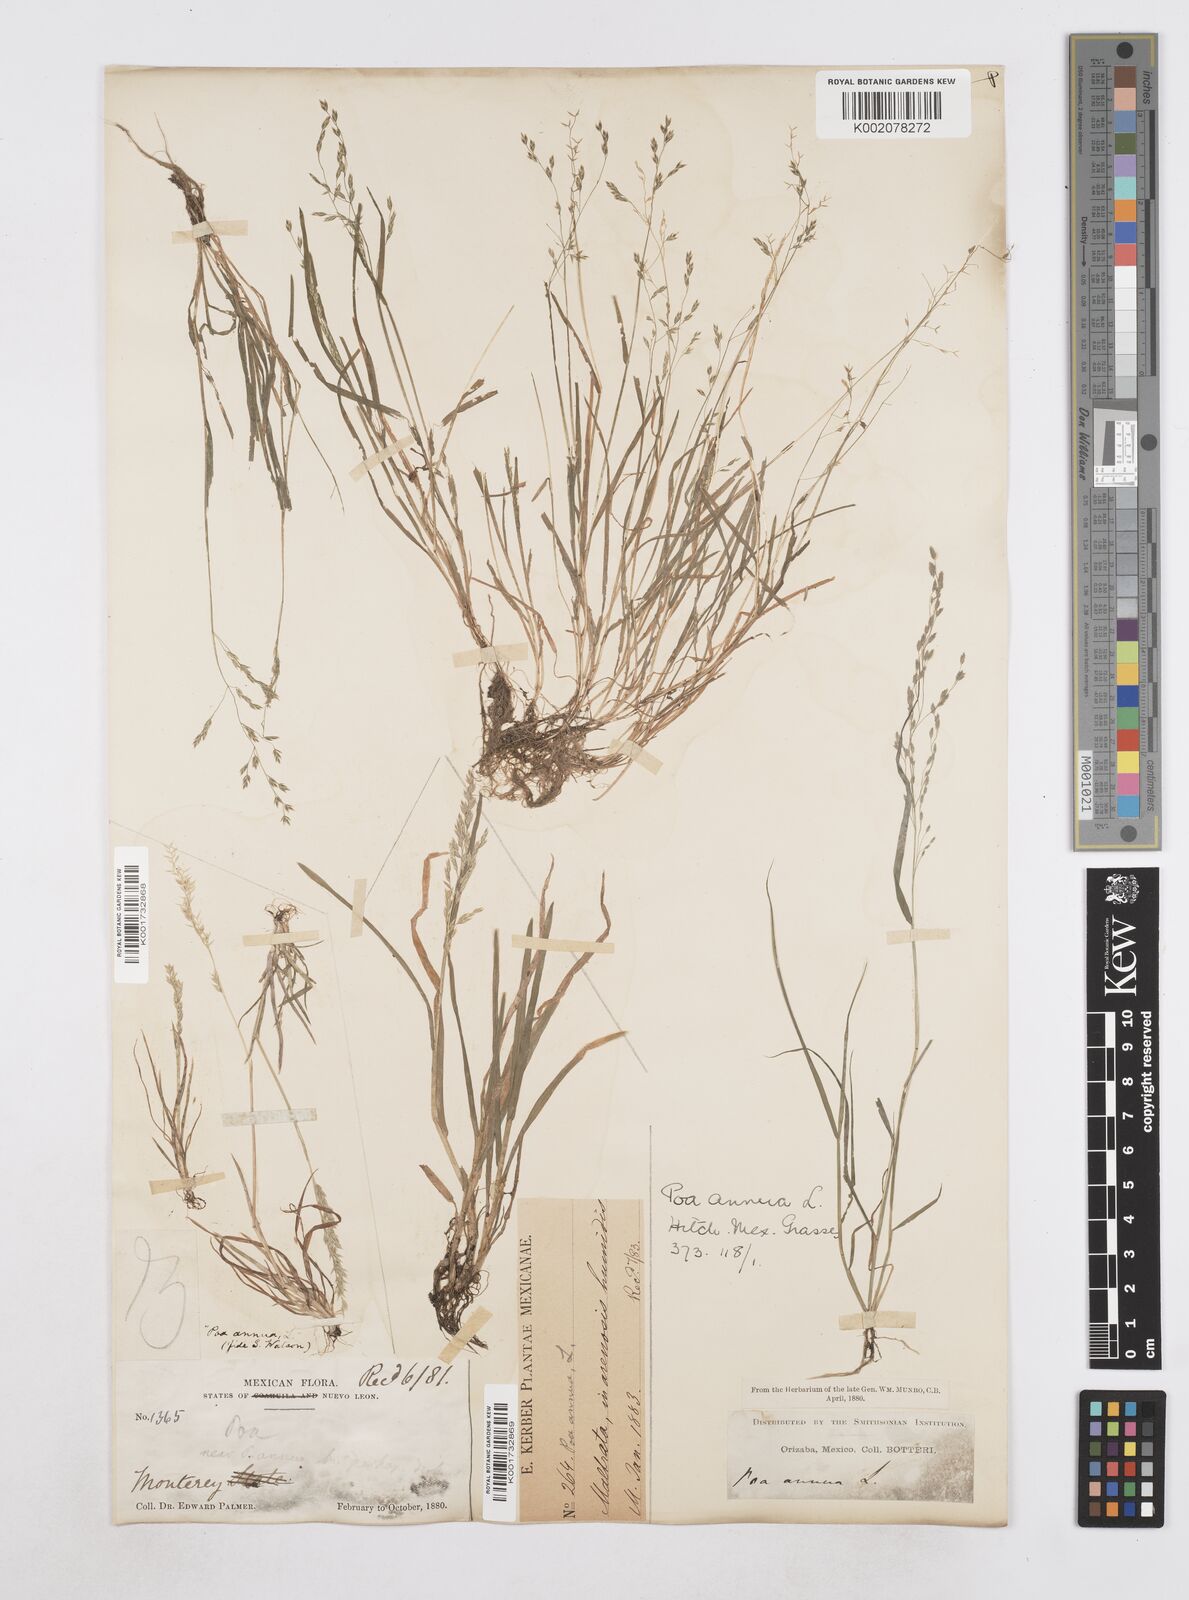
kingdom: Plantae
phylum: Tracheophyta
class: Liliopsida
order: Poales
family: Poaceae
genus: Poa
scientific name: Poa annua
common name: Annual bluegrass
